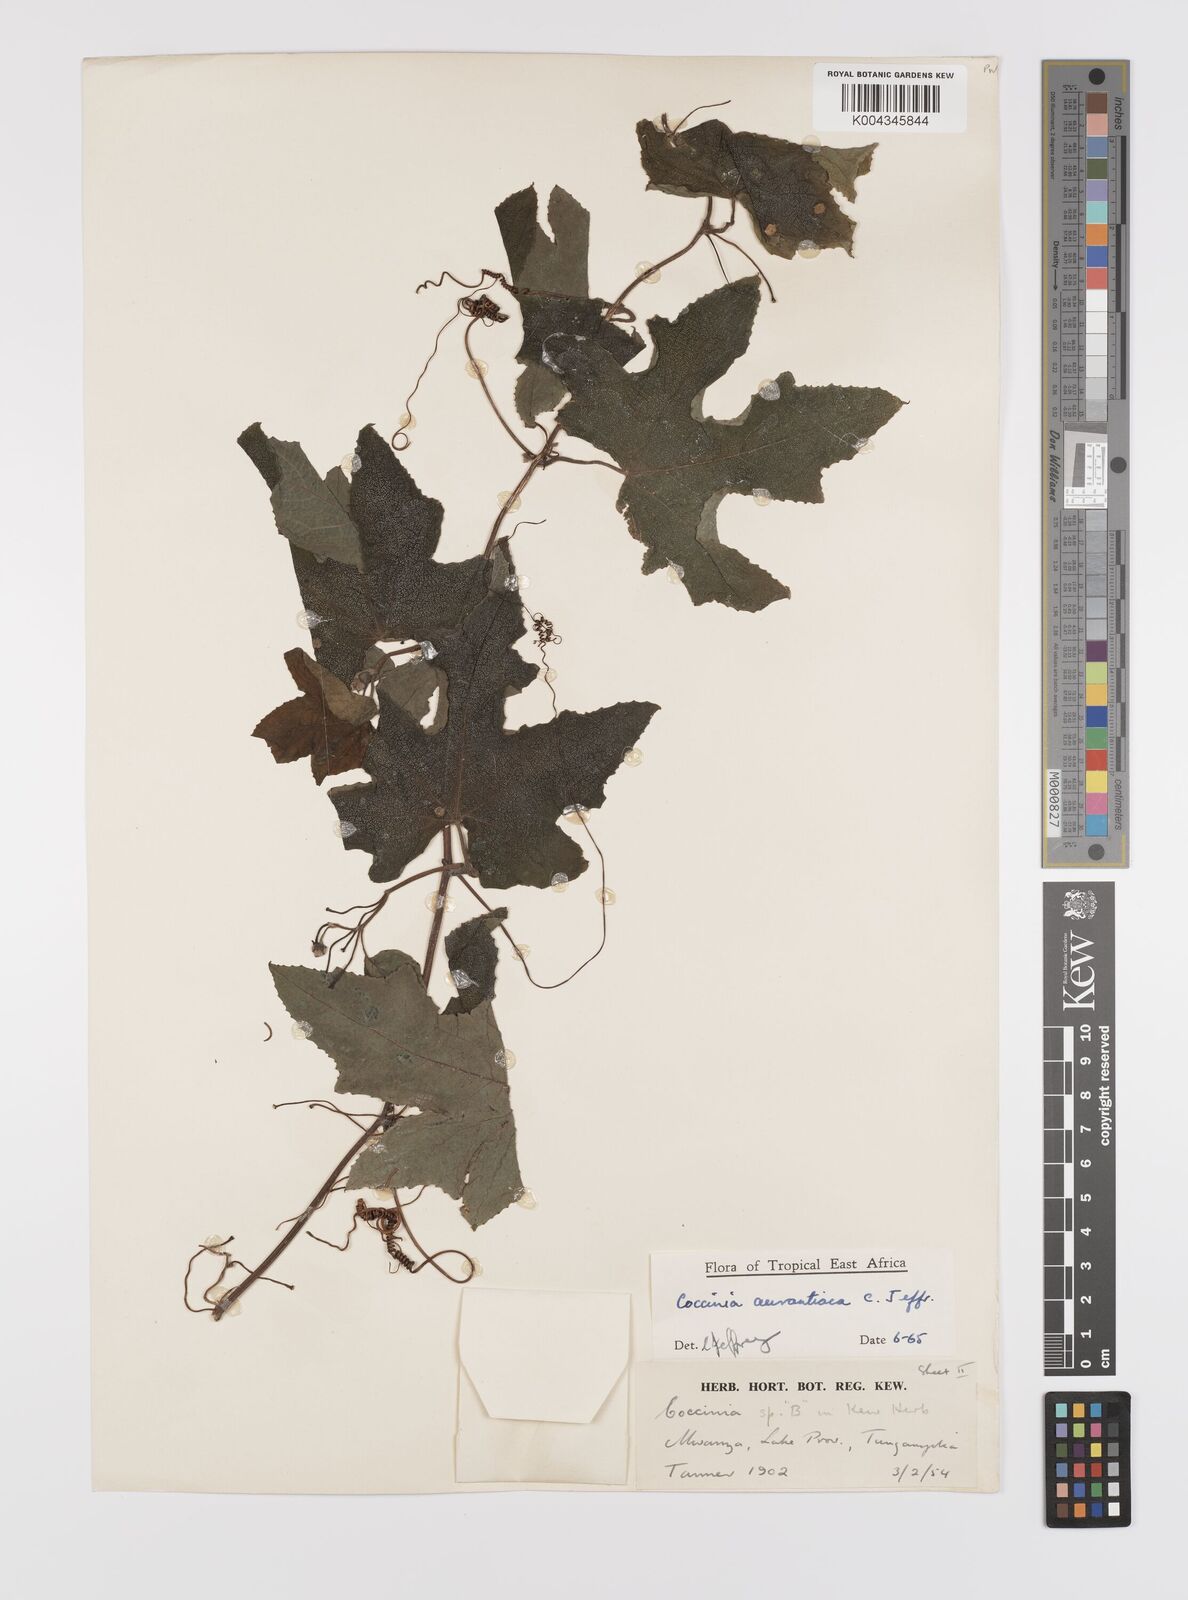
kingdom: Plantae
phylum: Tracheophyta
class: Magnoliopsida
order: Cucurbitales
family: Cucurbitaceae
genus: Coccinia
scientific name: Coccinia adoensis
